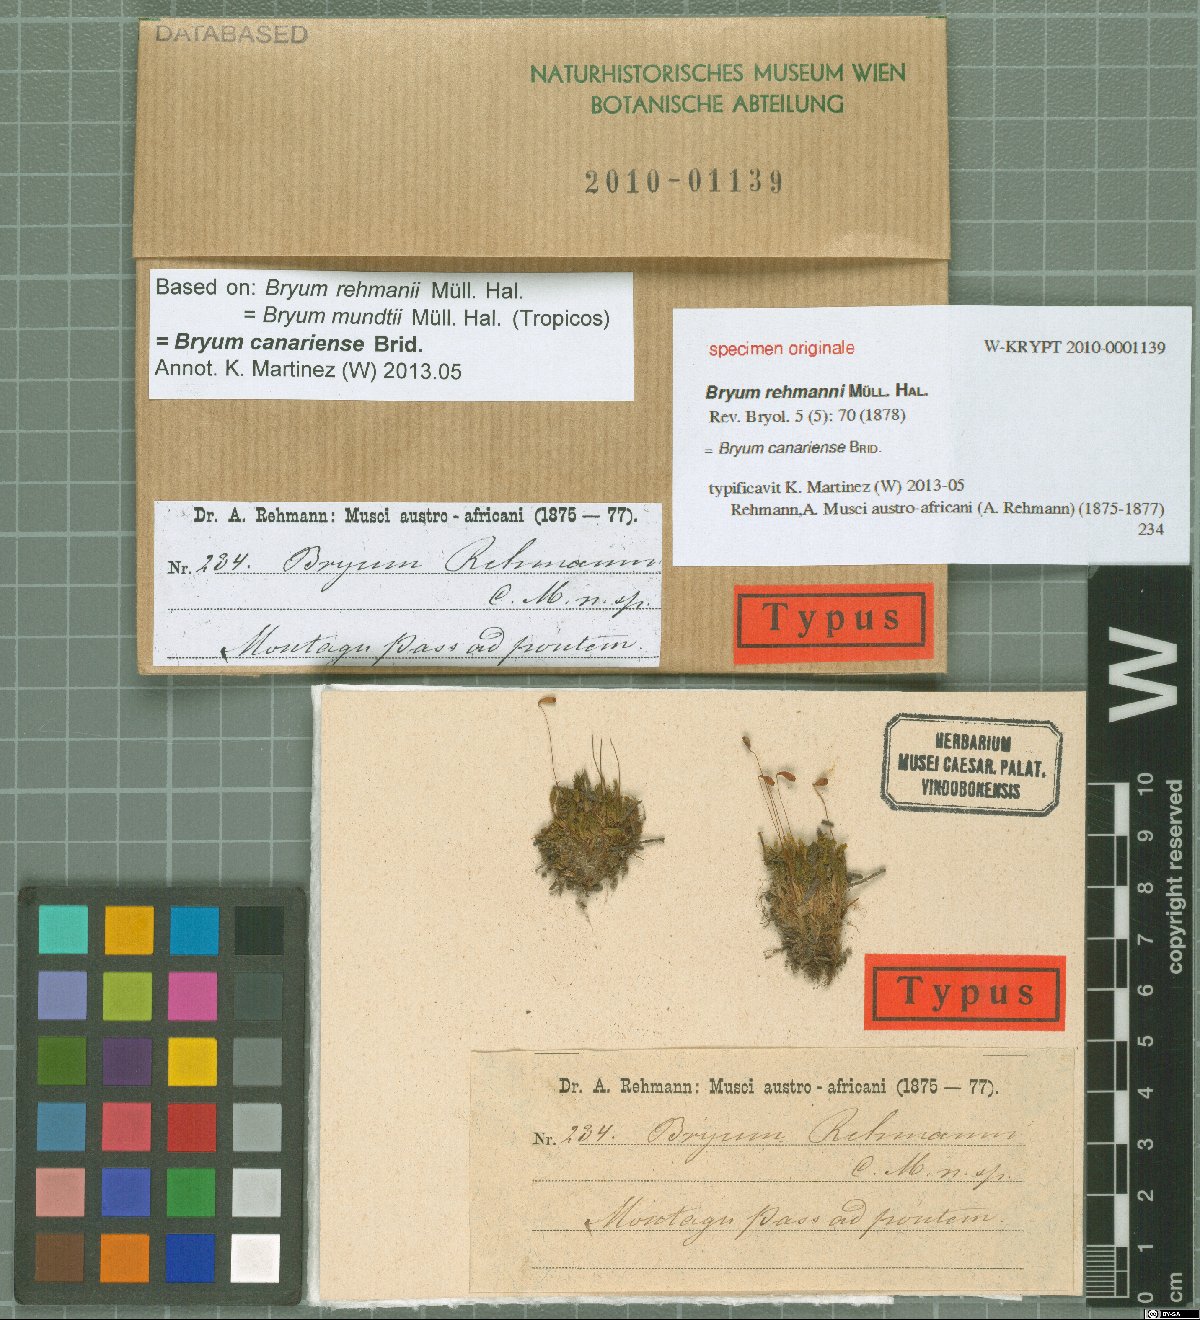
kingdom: Plantae
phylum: Bryophyta
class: Bryopsida
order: Bryales
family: Bryaceae
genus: Bryum
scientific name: Bryum
